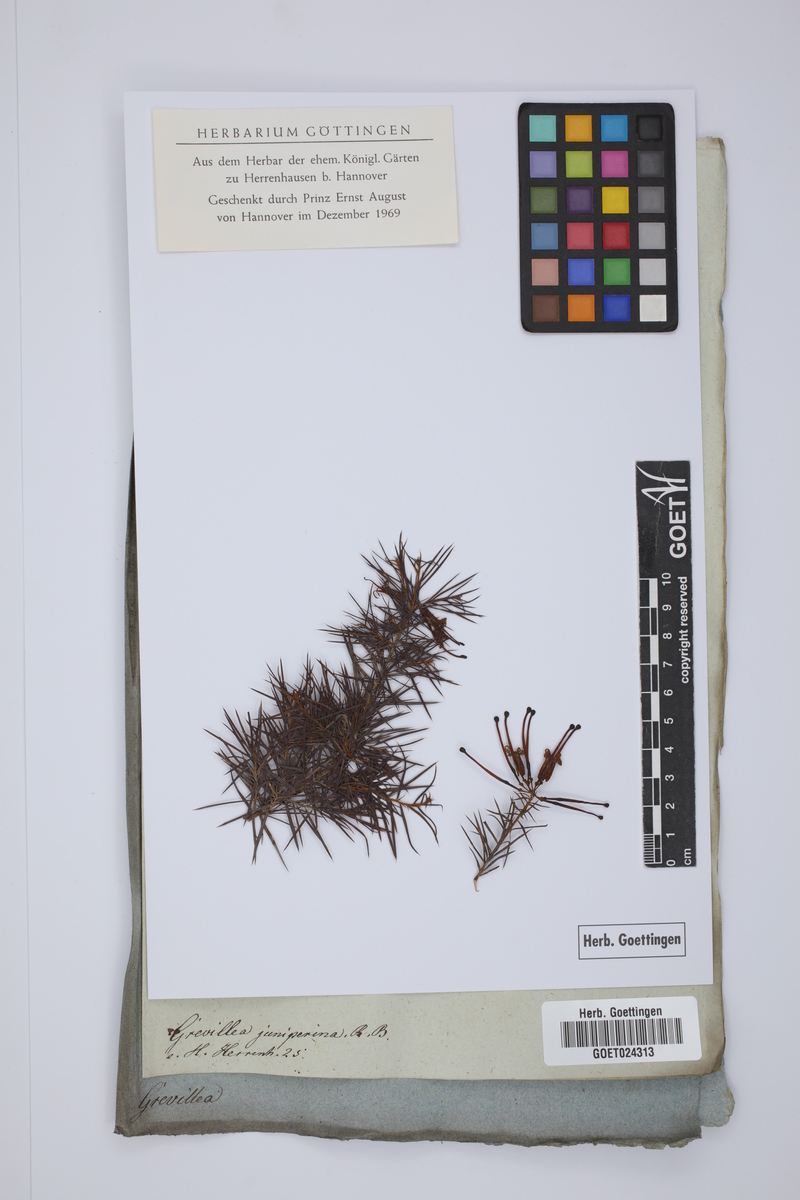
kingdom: Plantae
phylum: Tracheophyta
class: Magnoliopsida
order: Proteales
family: Proteaceae
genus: Grevillea
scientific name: Grevillea juniperina
